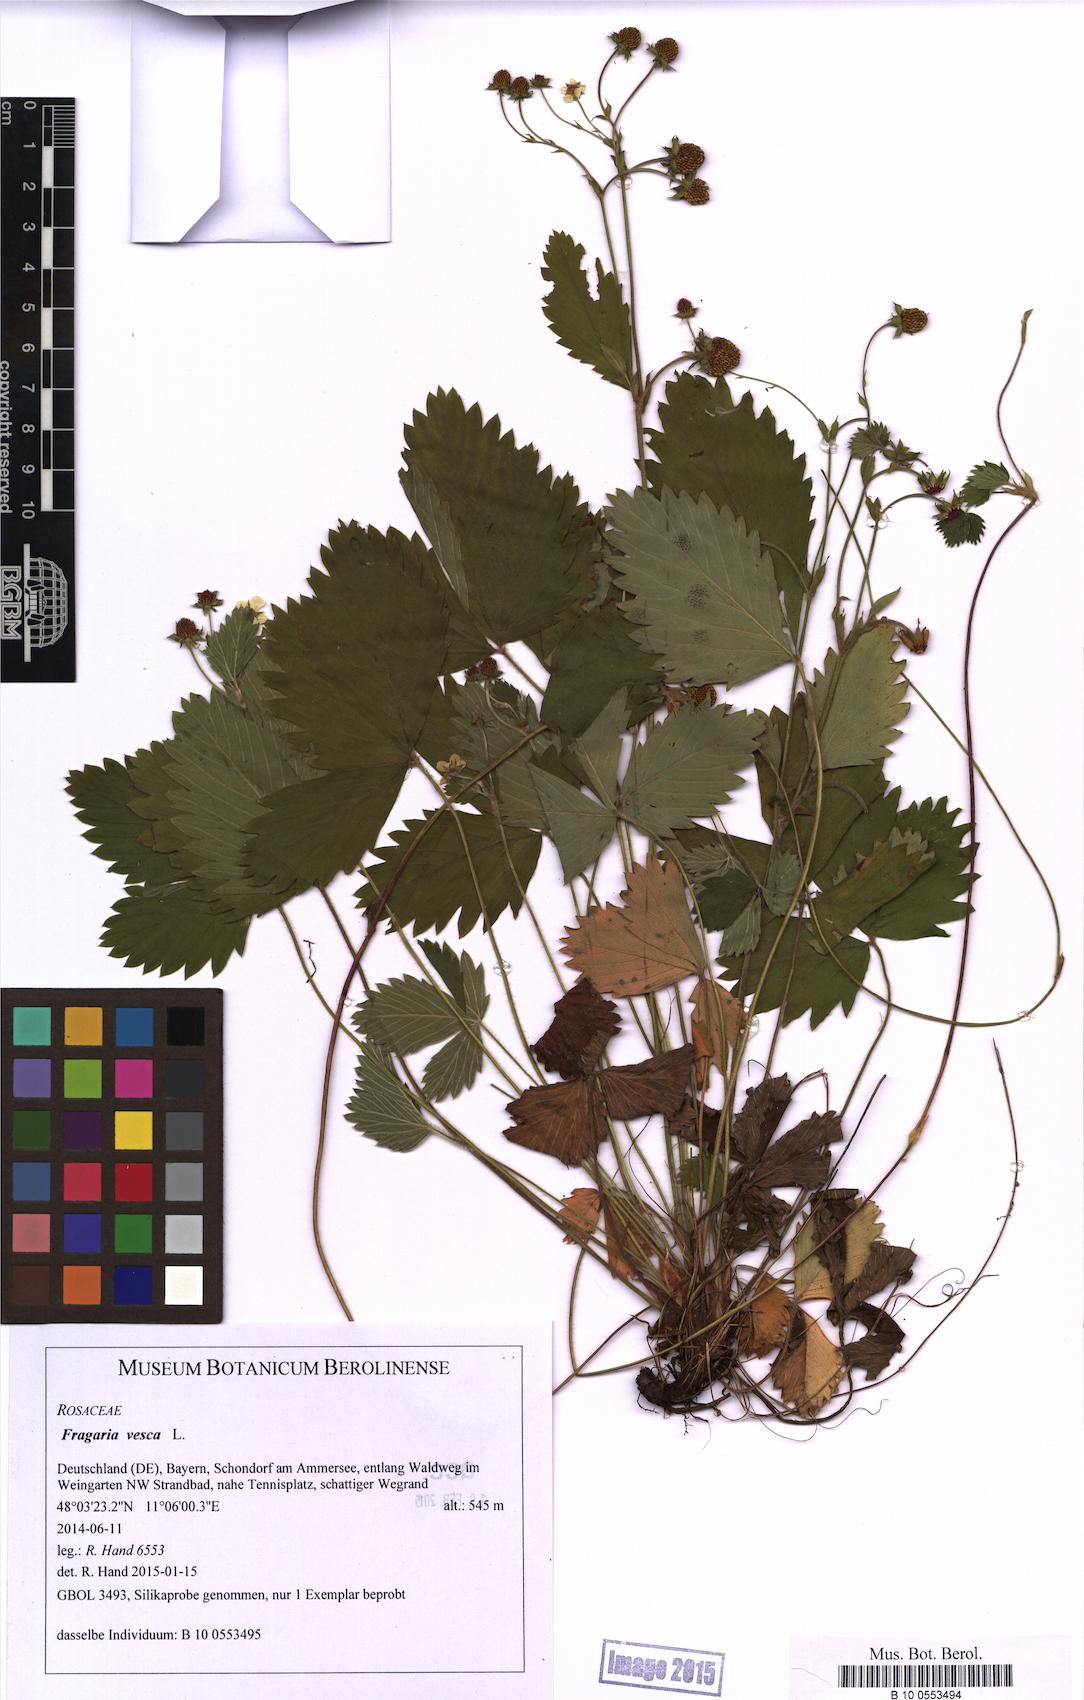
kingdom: Plantae
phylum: Tracheophyta
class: Magnoliopsida
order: Rosales
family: Rosaceae
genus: Fragaria
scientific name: Fragaria vesca
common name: Wild strawberry
